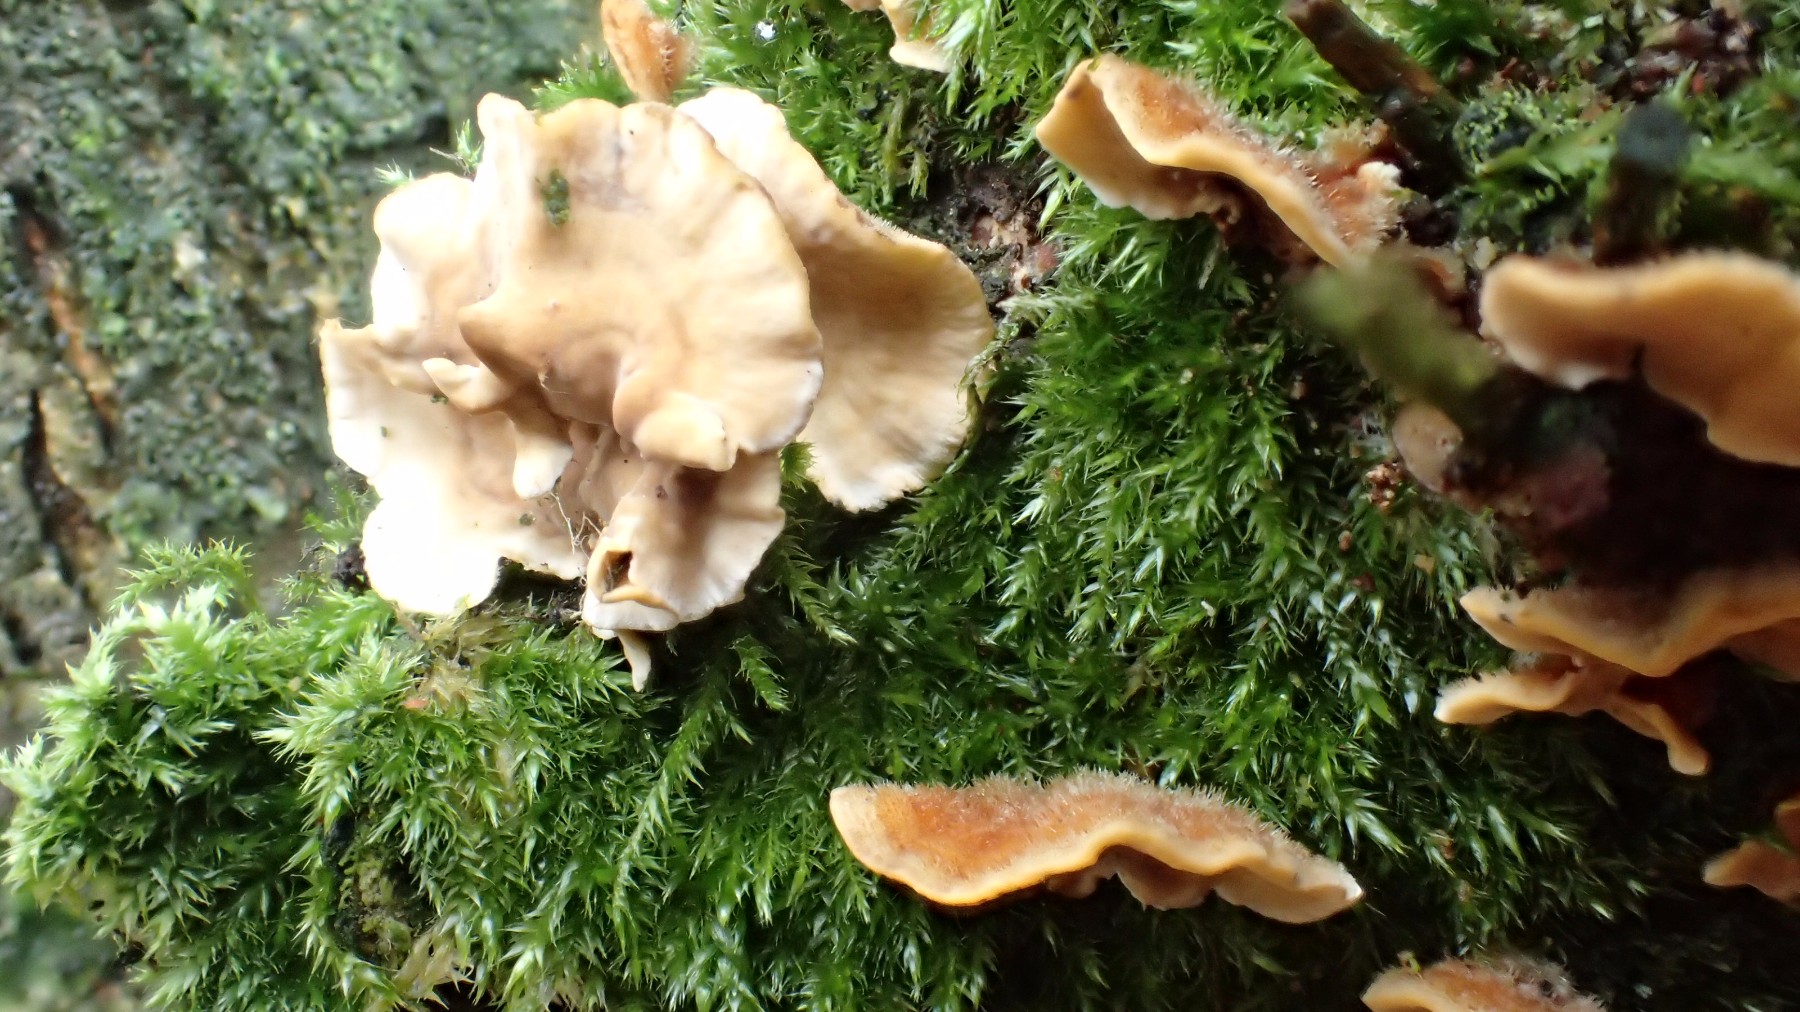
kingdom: Fungi
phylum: Basidiomycota
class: Agaricomycetes
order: Russulales
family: Stereaceae
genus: Stereum
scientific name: Stereum hirsutum
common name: håret lædersvamp
